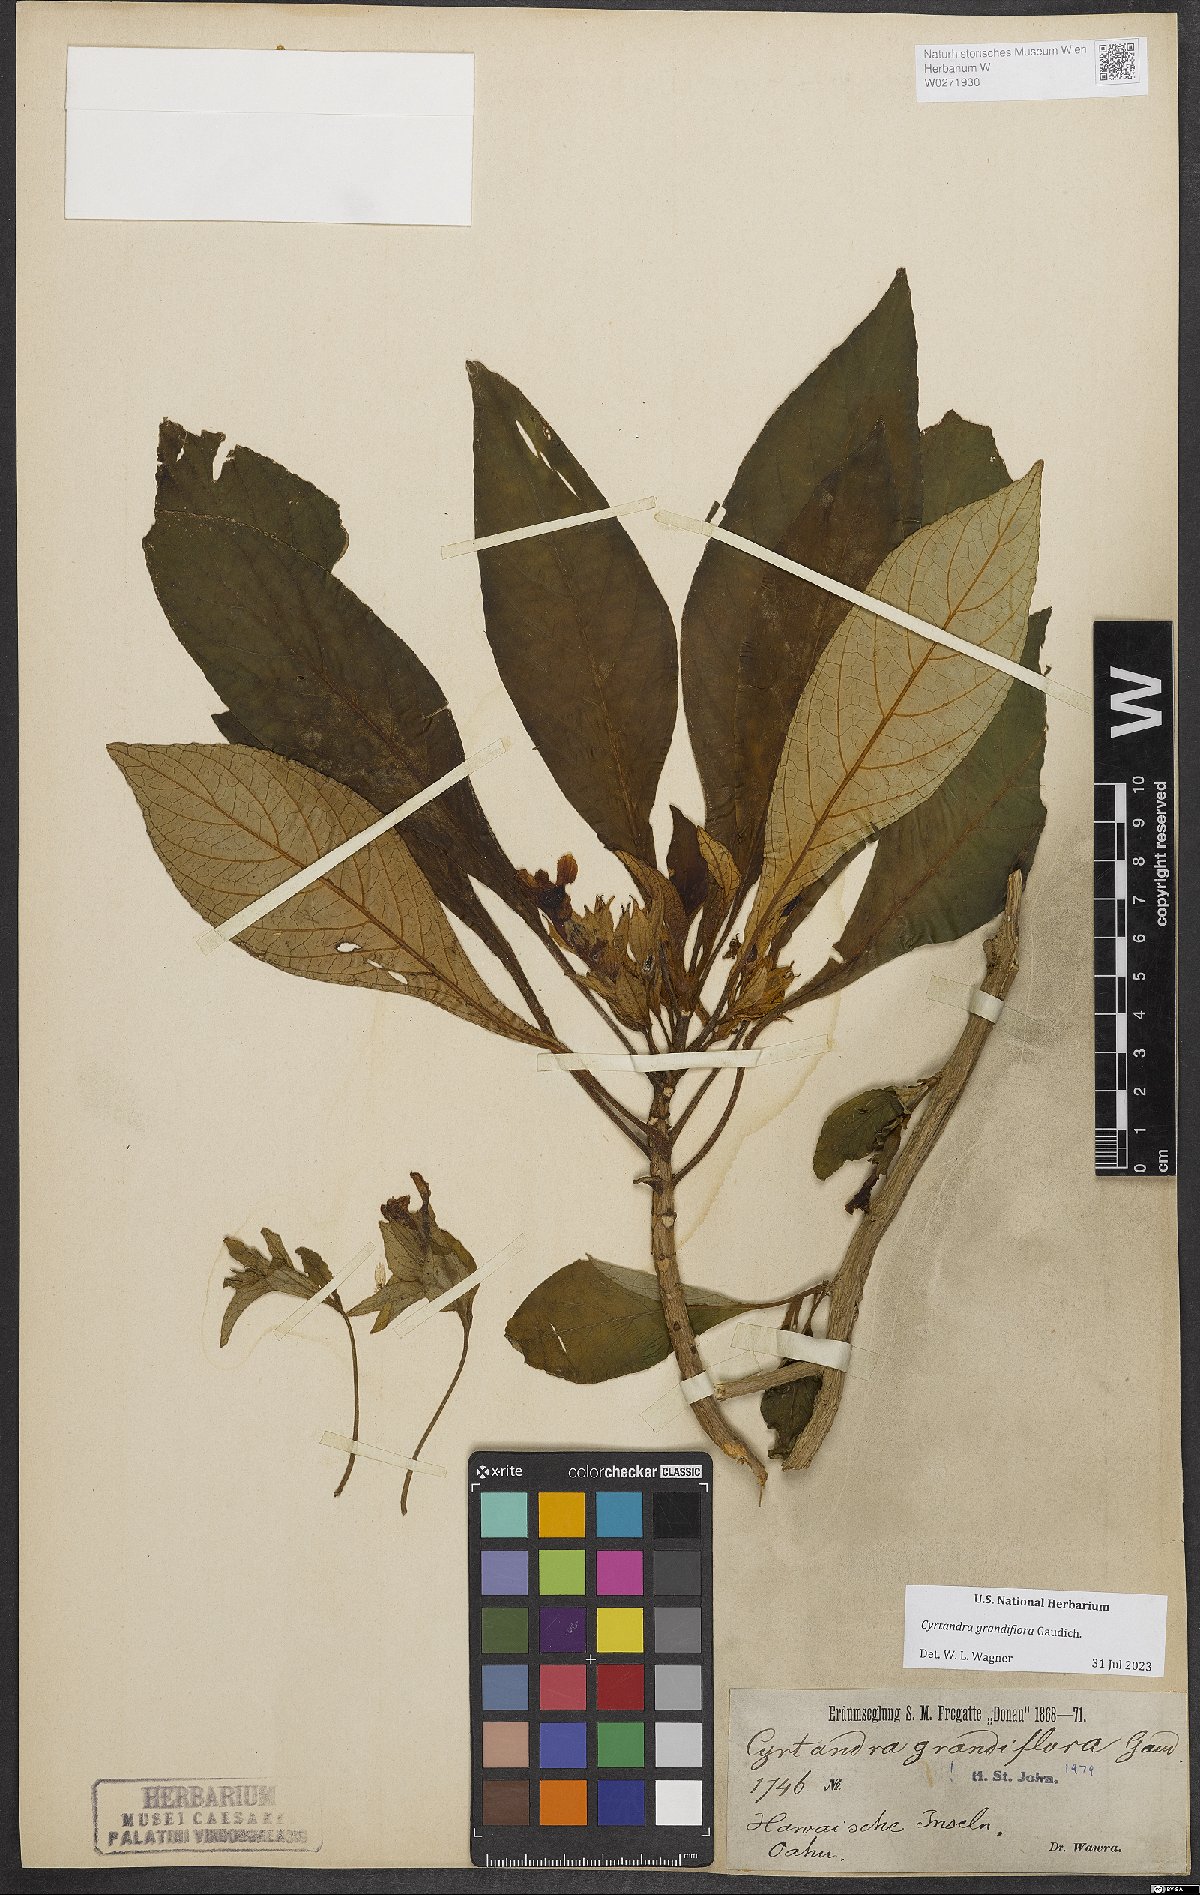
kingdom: Plantae
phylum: Tracheophyta
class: Magnoliopsida
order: Lamiales
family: Gesneriaceae
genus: Cyrtandra
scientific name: Cyrtandra grandiflora
